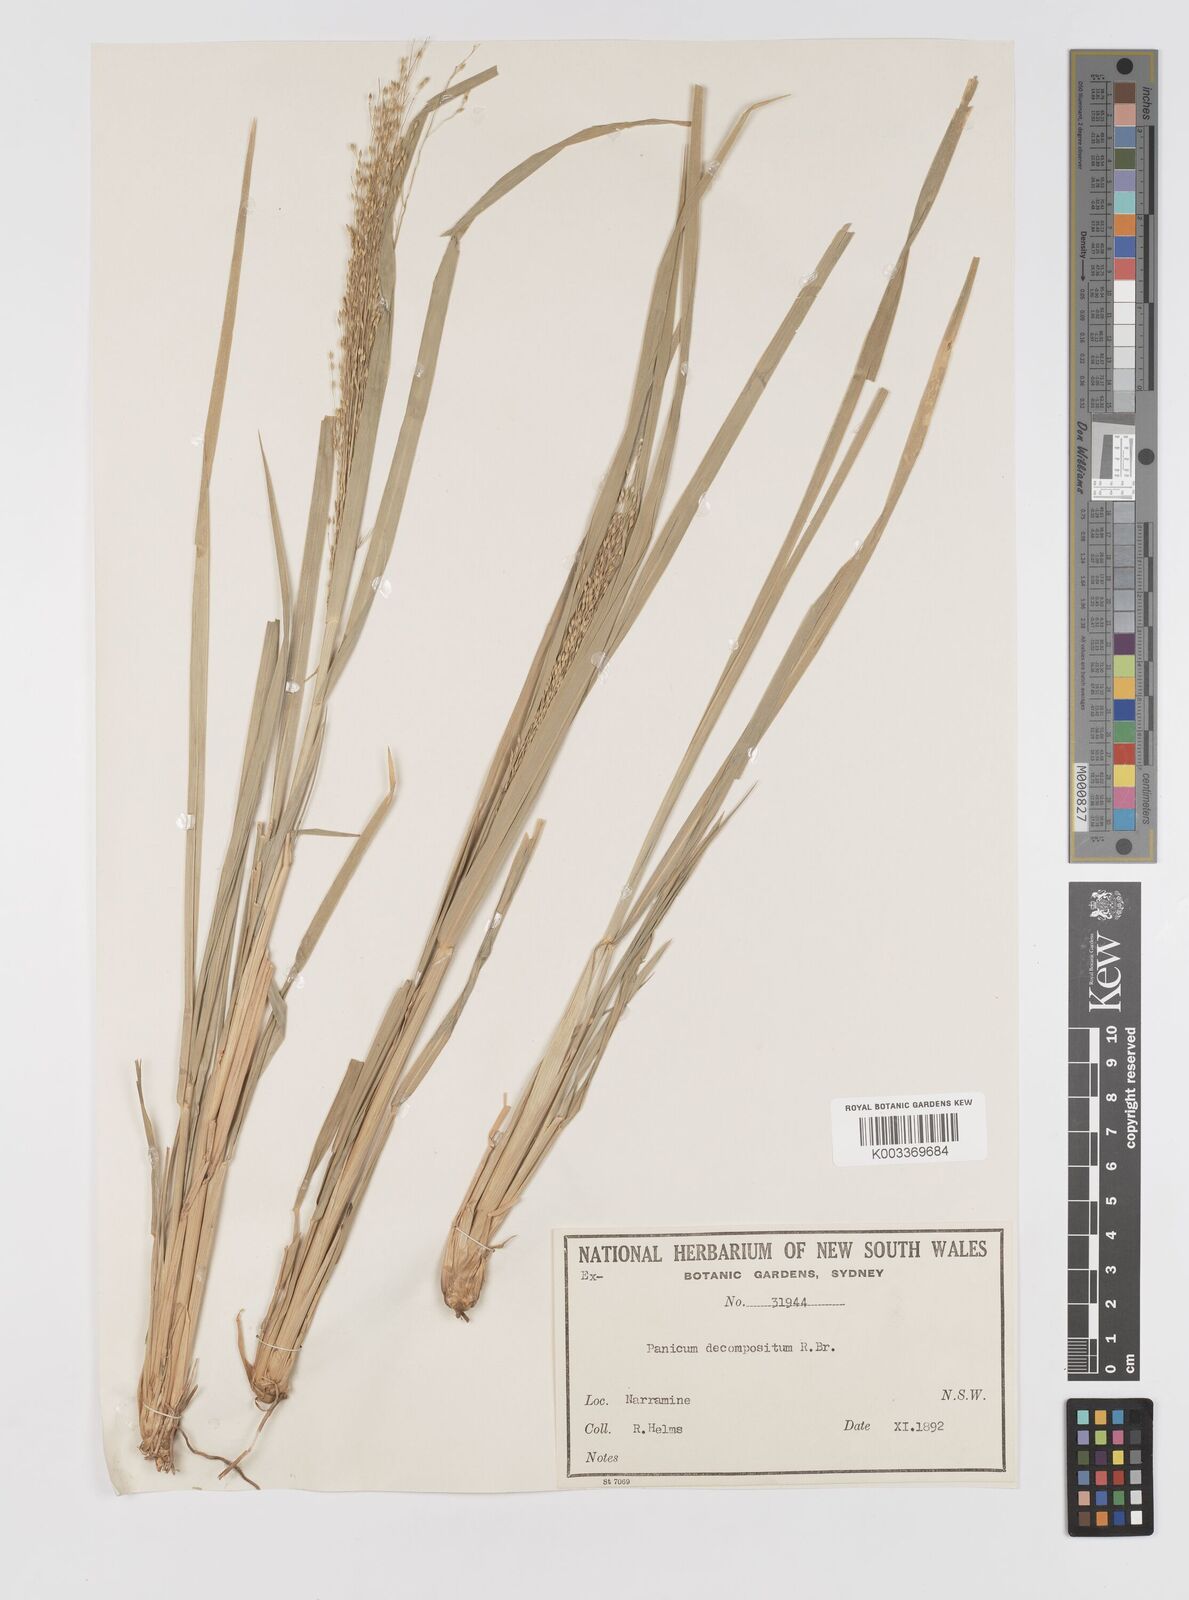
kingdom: Plantae
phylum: Tracheophyta
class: Liliopsida
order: Poales
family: Poaceae
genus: Panicum
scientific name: Panicum decompositum
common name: Australian millet
